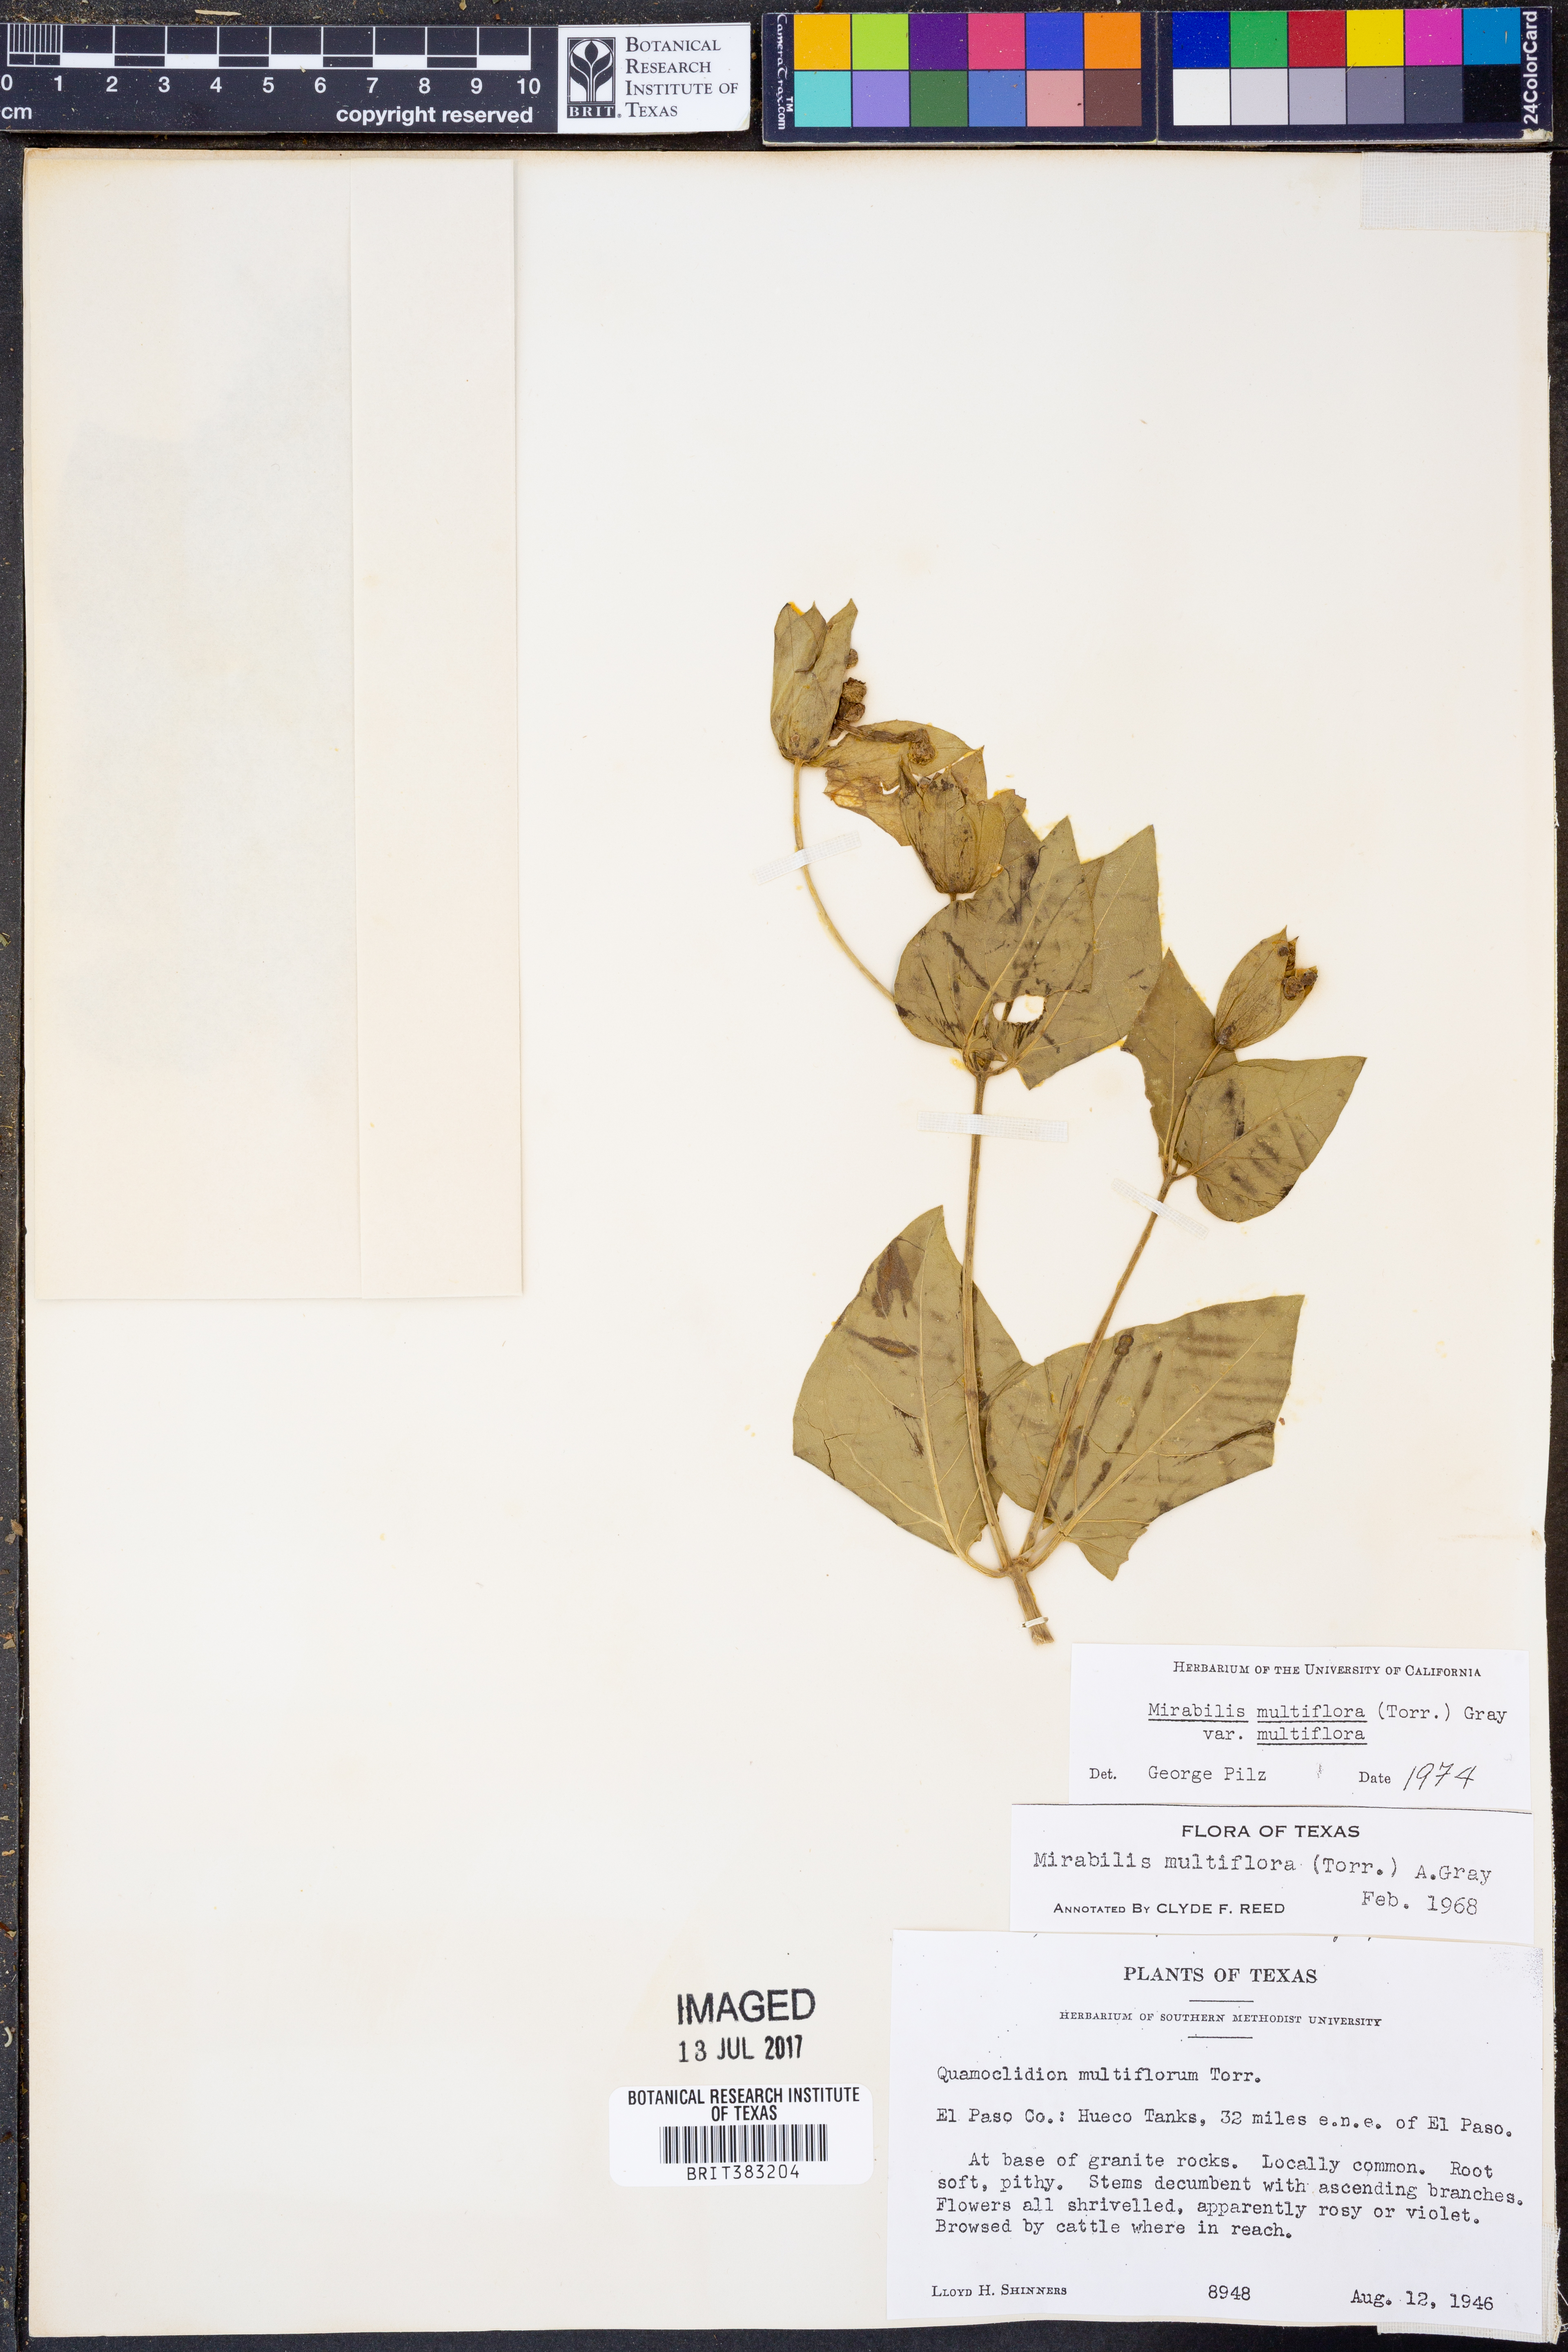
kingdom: Plantae
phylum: Tracheophyta
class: Magnoliopsida
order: Caryophyllales
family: Nyctaginaceae
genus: Mirabilis
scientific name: Mirabilis multiflora
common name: Froebel's four-o'clock
